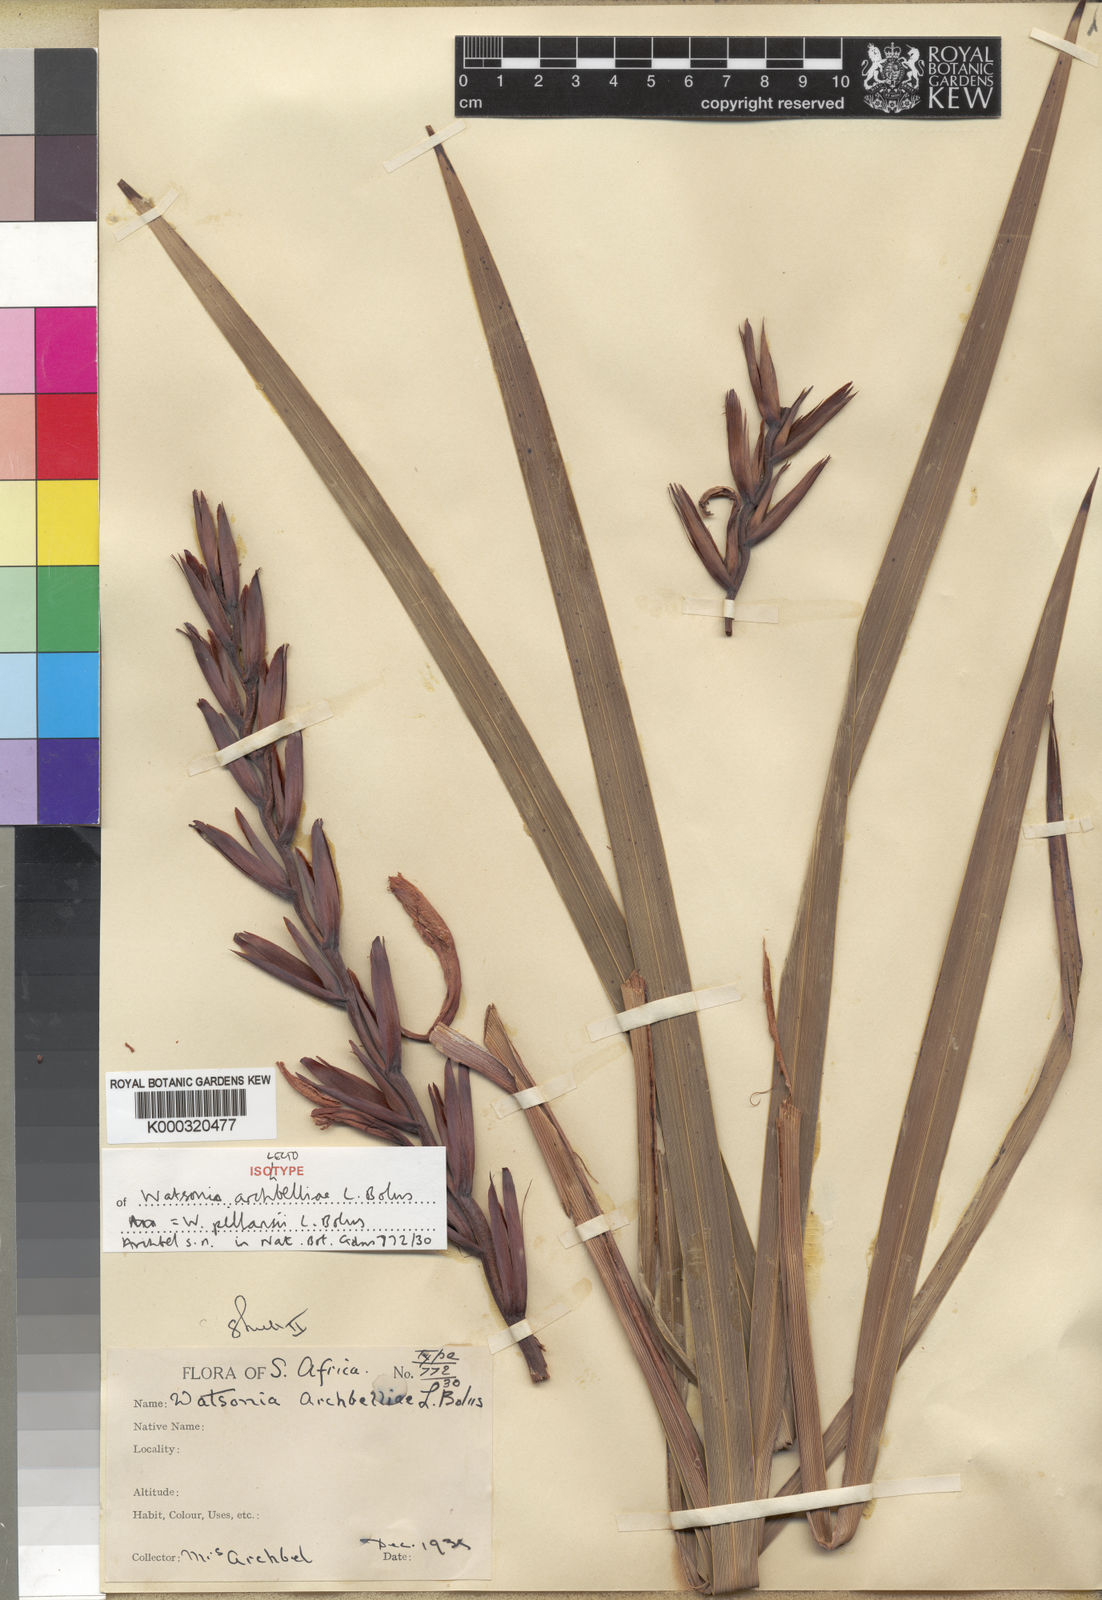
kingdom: Plantae
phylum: Tracheophyta
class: Liliopsida
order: Asparagales
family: Iridaceae
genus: Watsonia
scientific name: Watsonia pillansii
